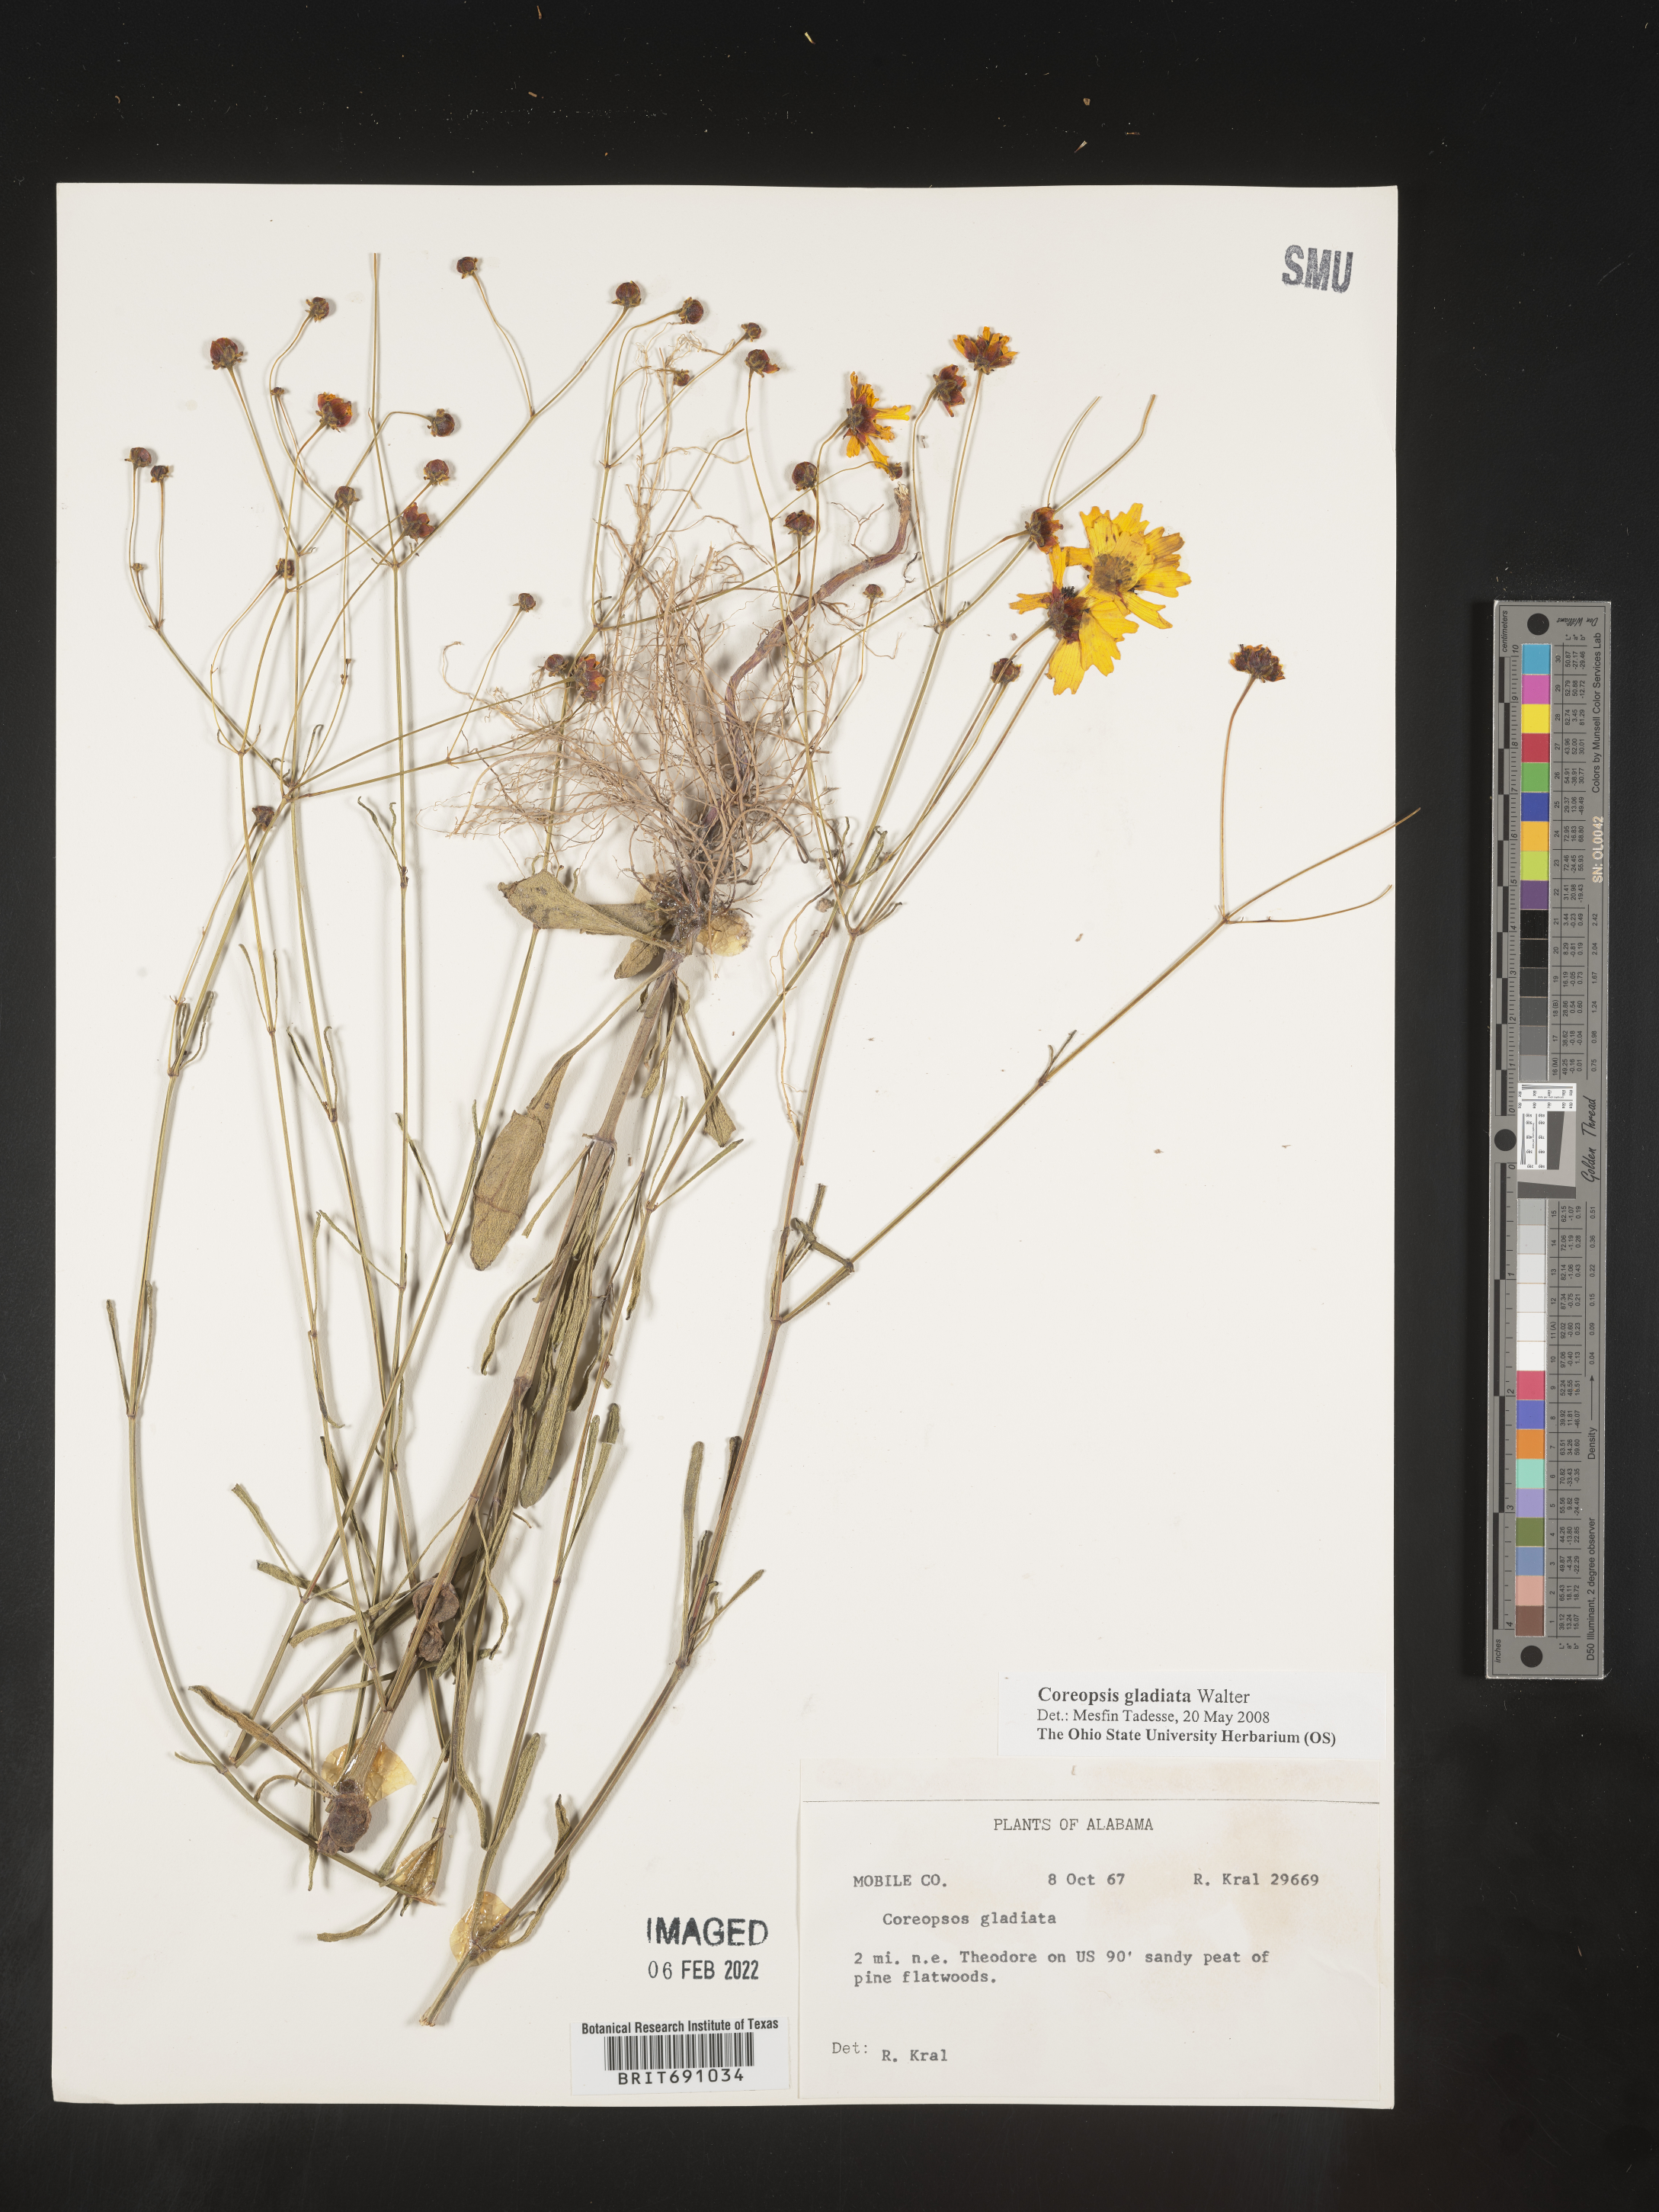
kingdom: Plantae
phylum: Tracheophyta
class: Magnoliopsida
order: Asterales
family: Asteraceae
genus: Coreopsis
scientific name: Coreopsis gladiata
